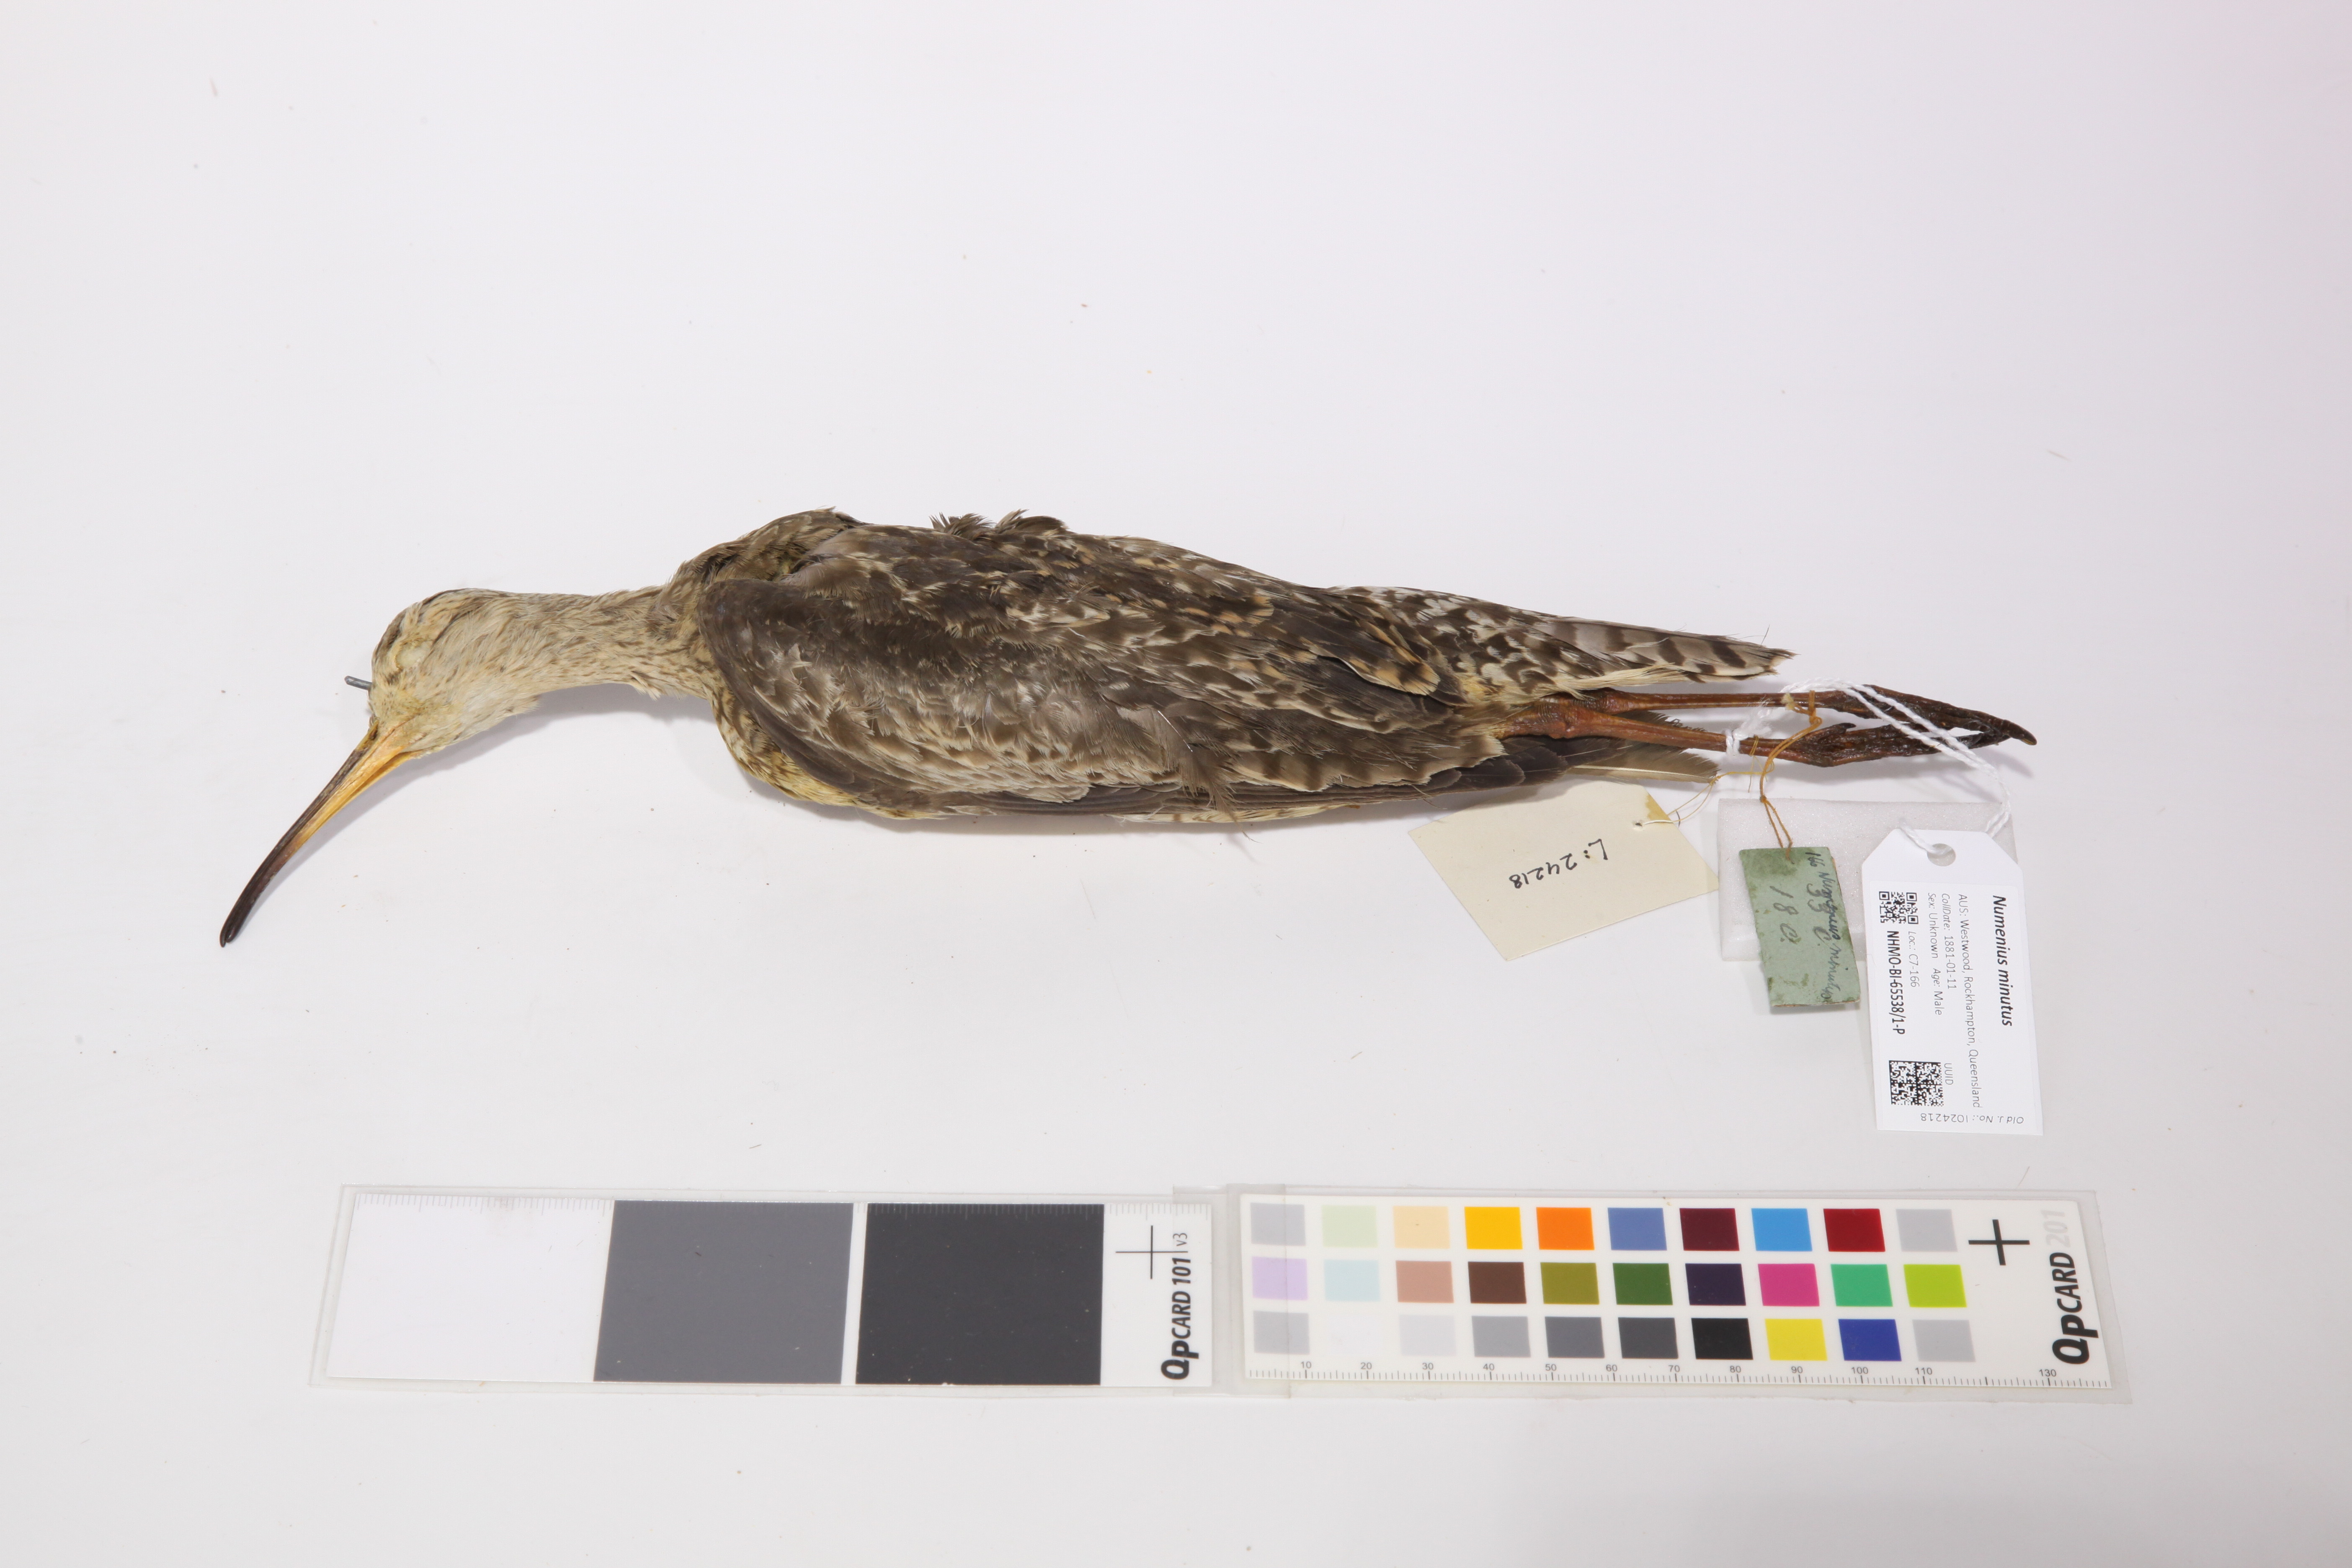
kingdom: Animalia
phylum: Chordata
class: Aves
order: Charadriiformes
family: Scolopacidae
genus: Numenius
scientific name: Numenius minutus
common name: Little curlew
